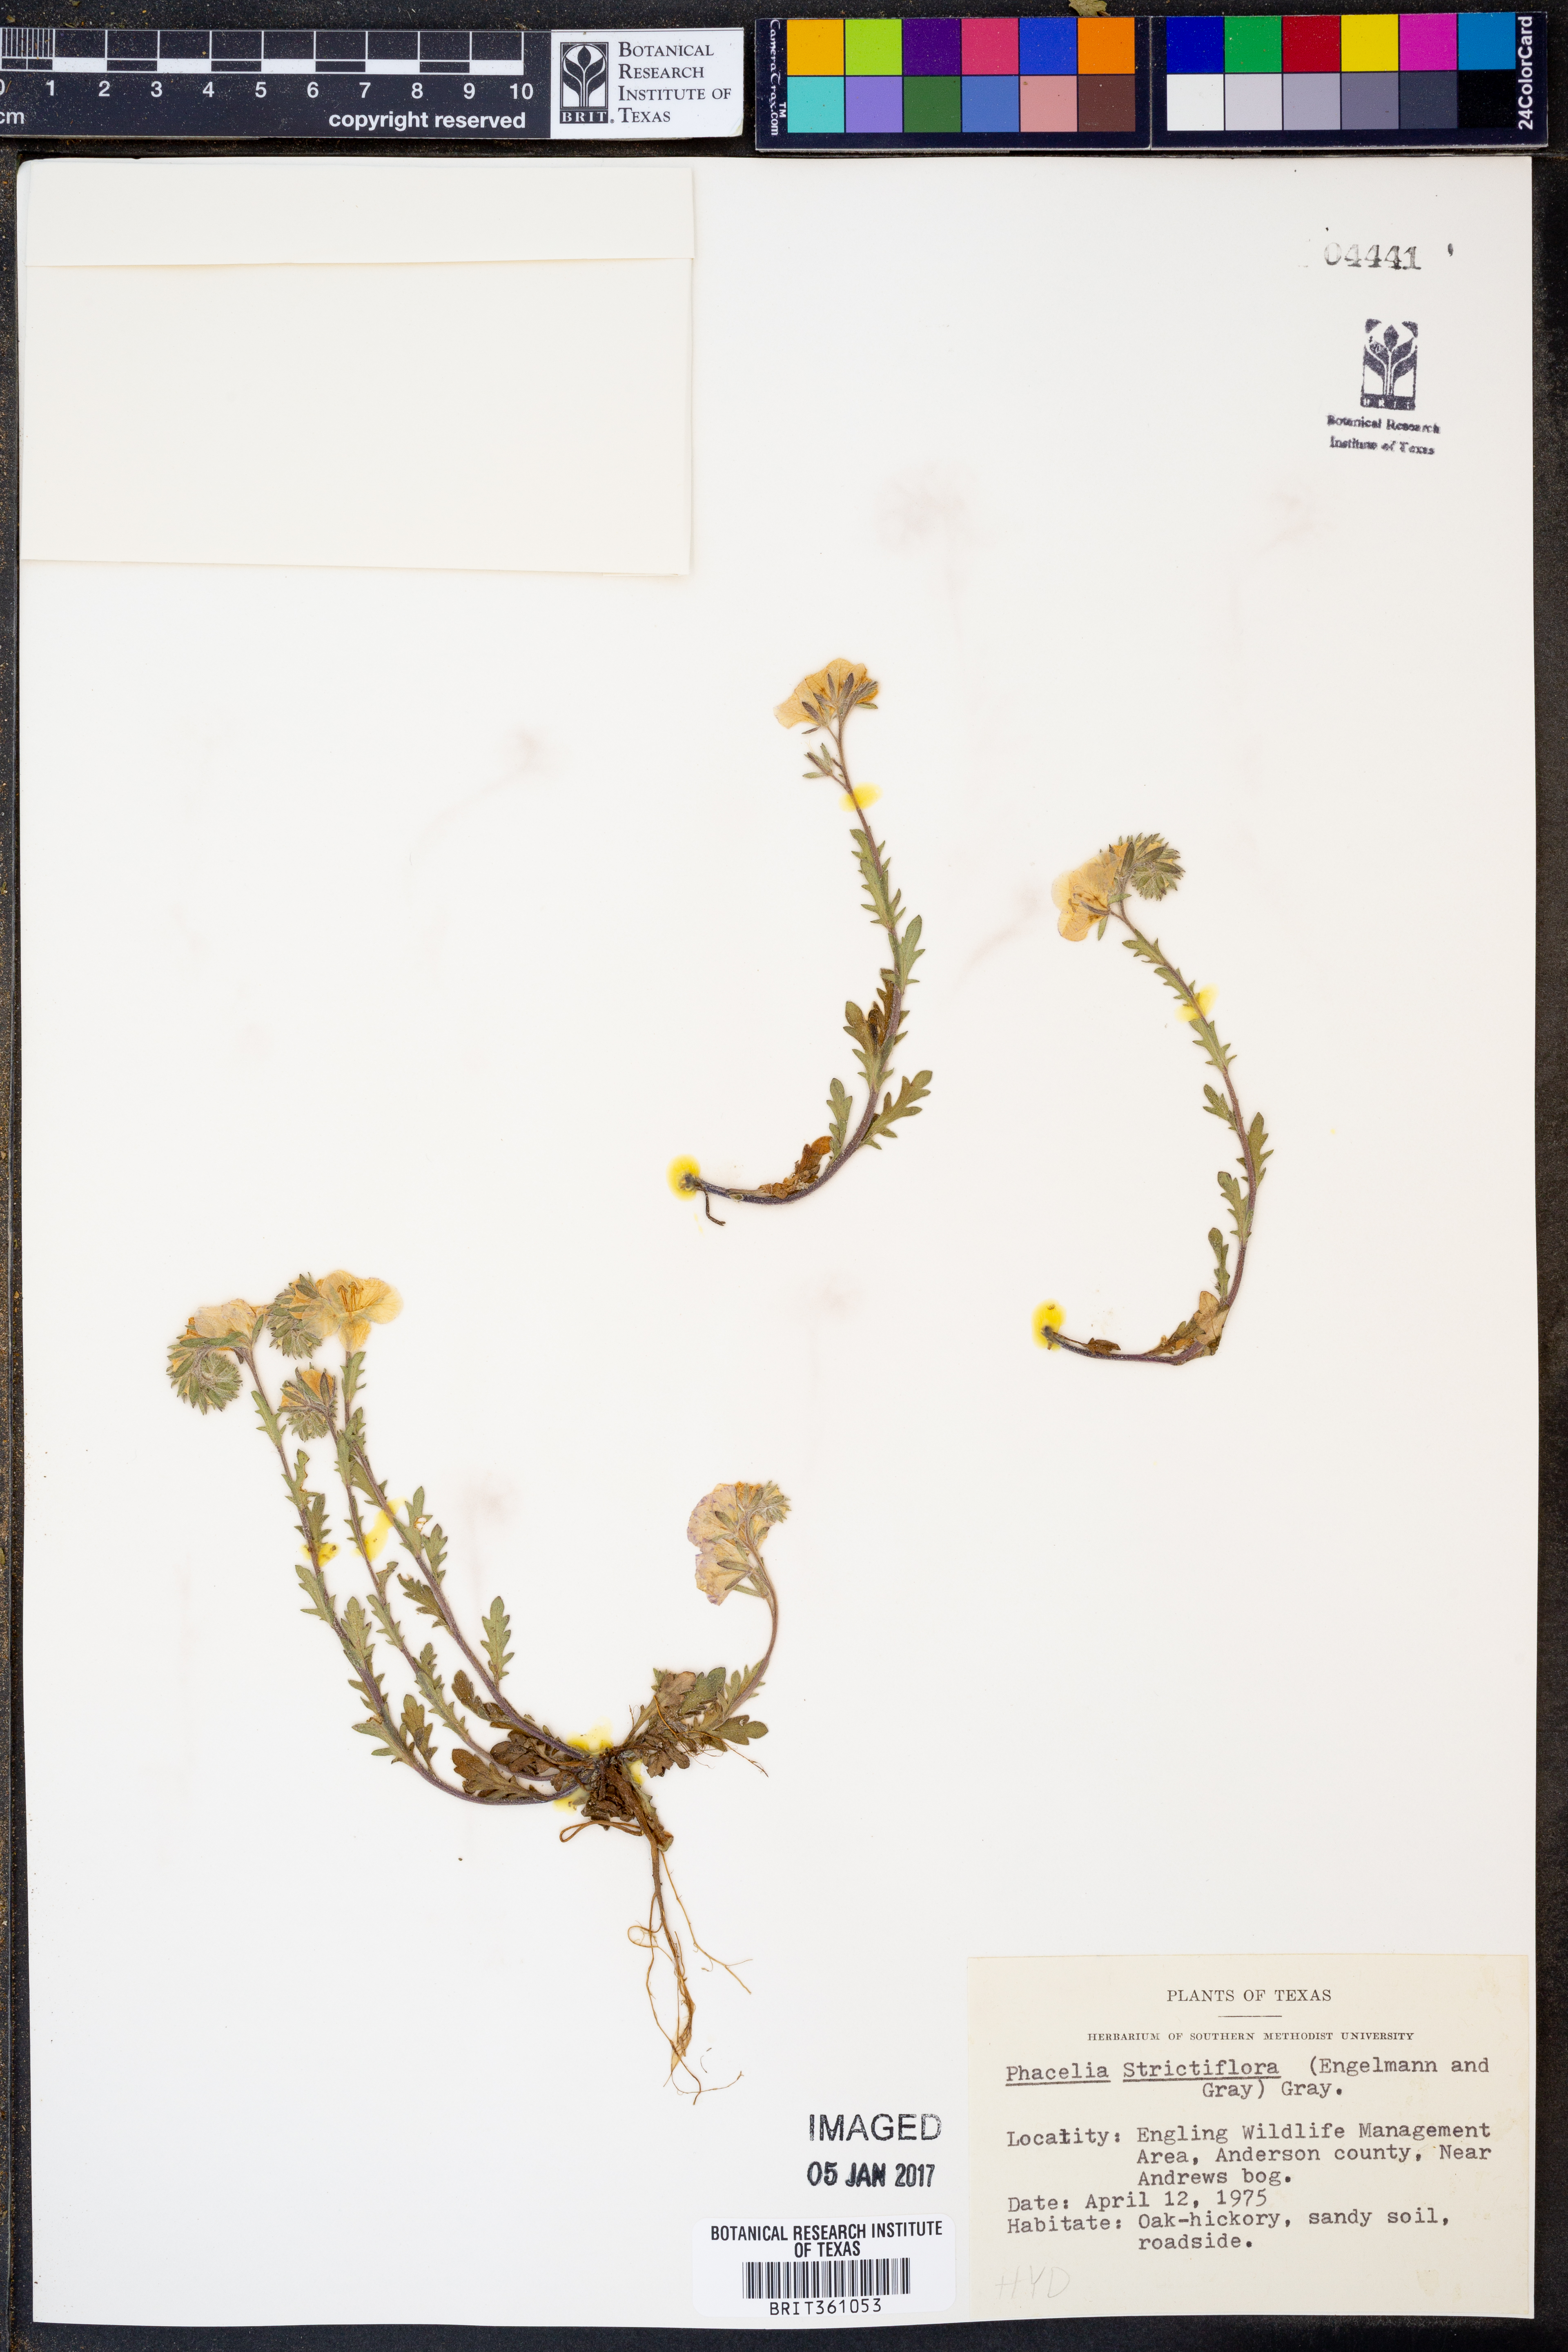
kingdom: Plantae
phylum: Tracheophyta
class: Magnoliopsida
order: Boraginales
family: Hydrophyllaceae
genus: Phacelia
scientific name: Phacelia strictiflora
